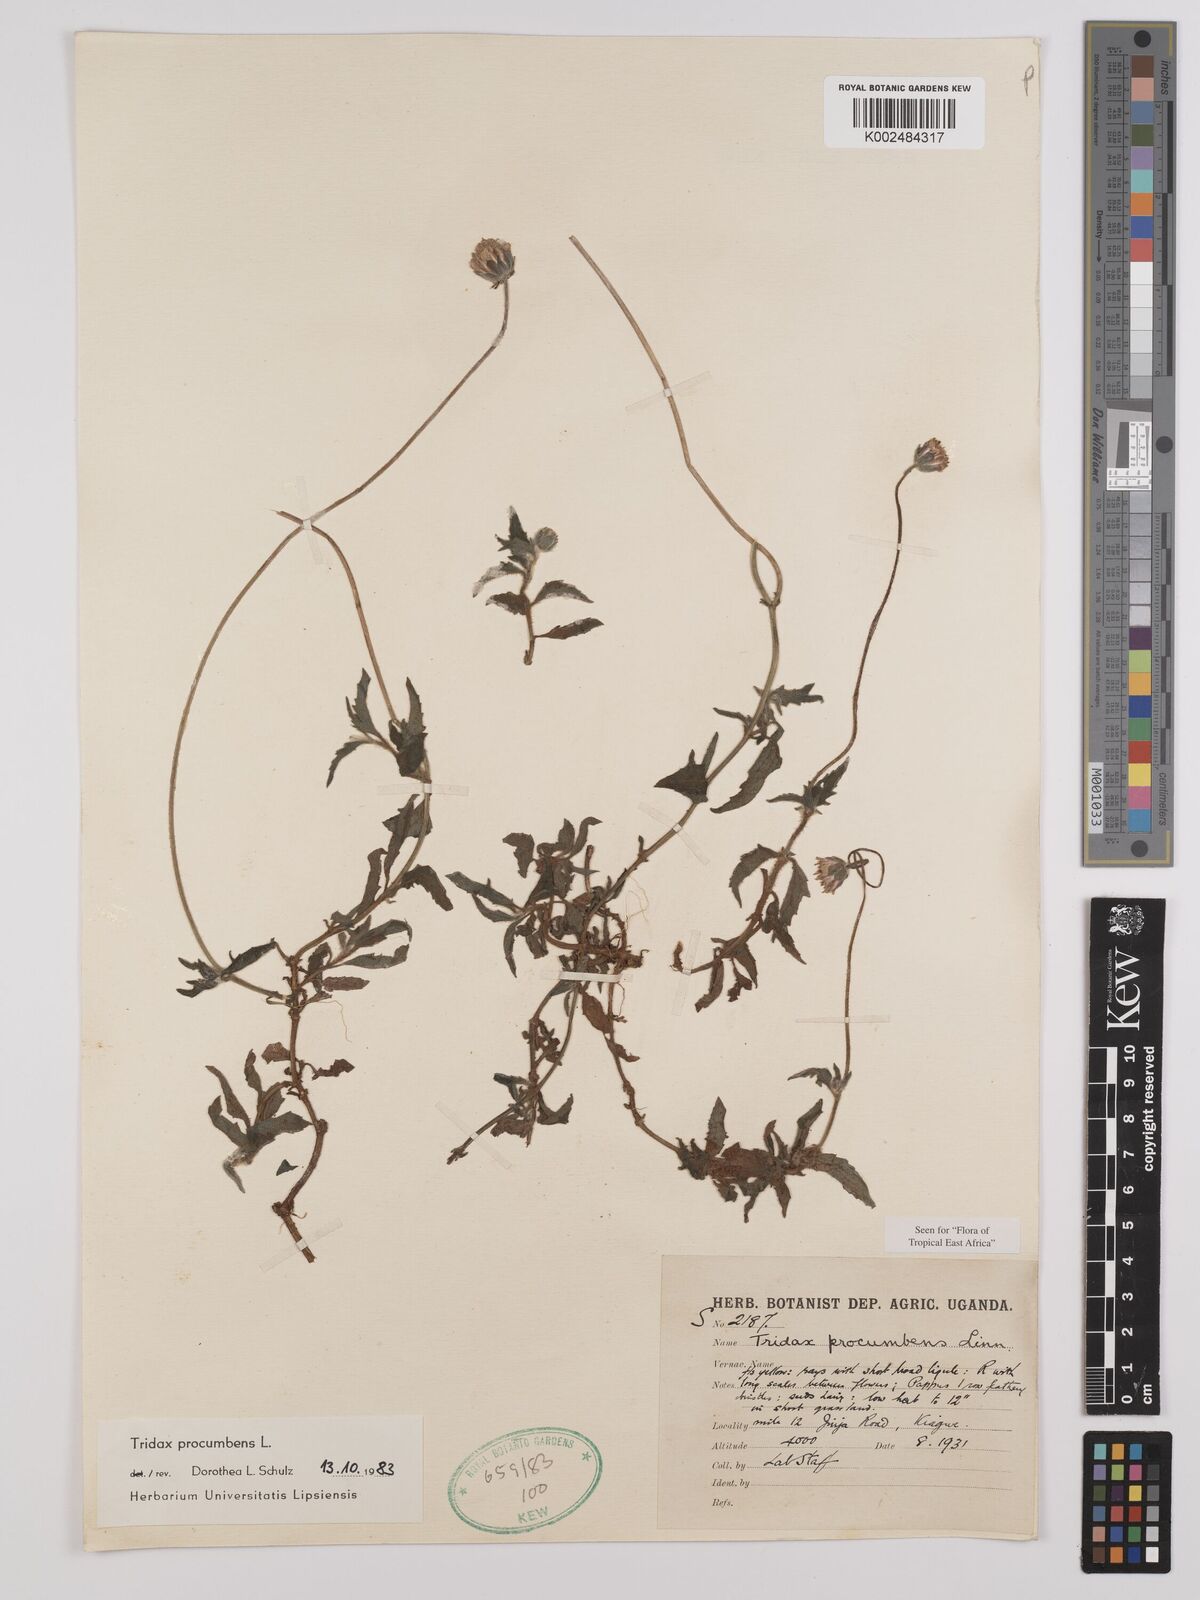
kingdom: Plantae
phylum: Tracheophyta
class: Magnoliopsida
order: Asterales
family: Asteraceae
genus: Tridax
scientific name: Tridax procumbens
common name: Coatbuttons
